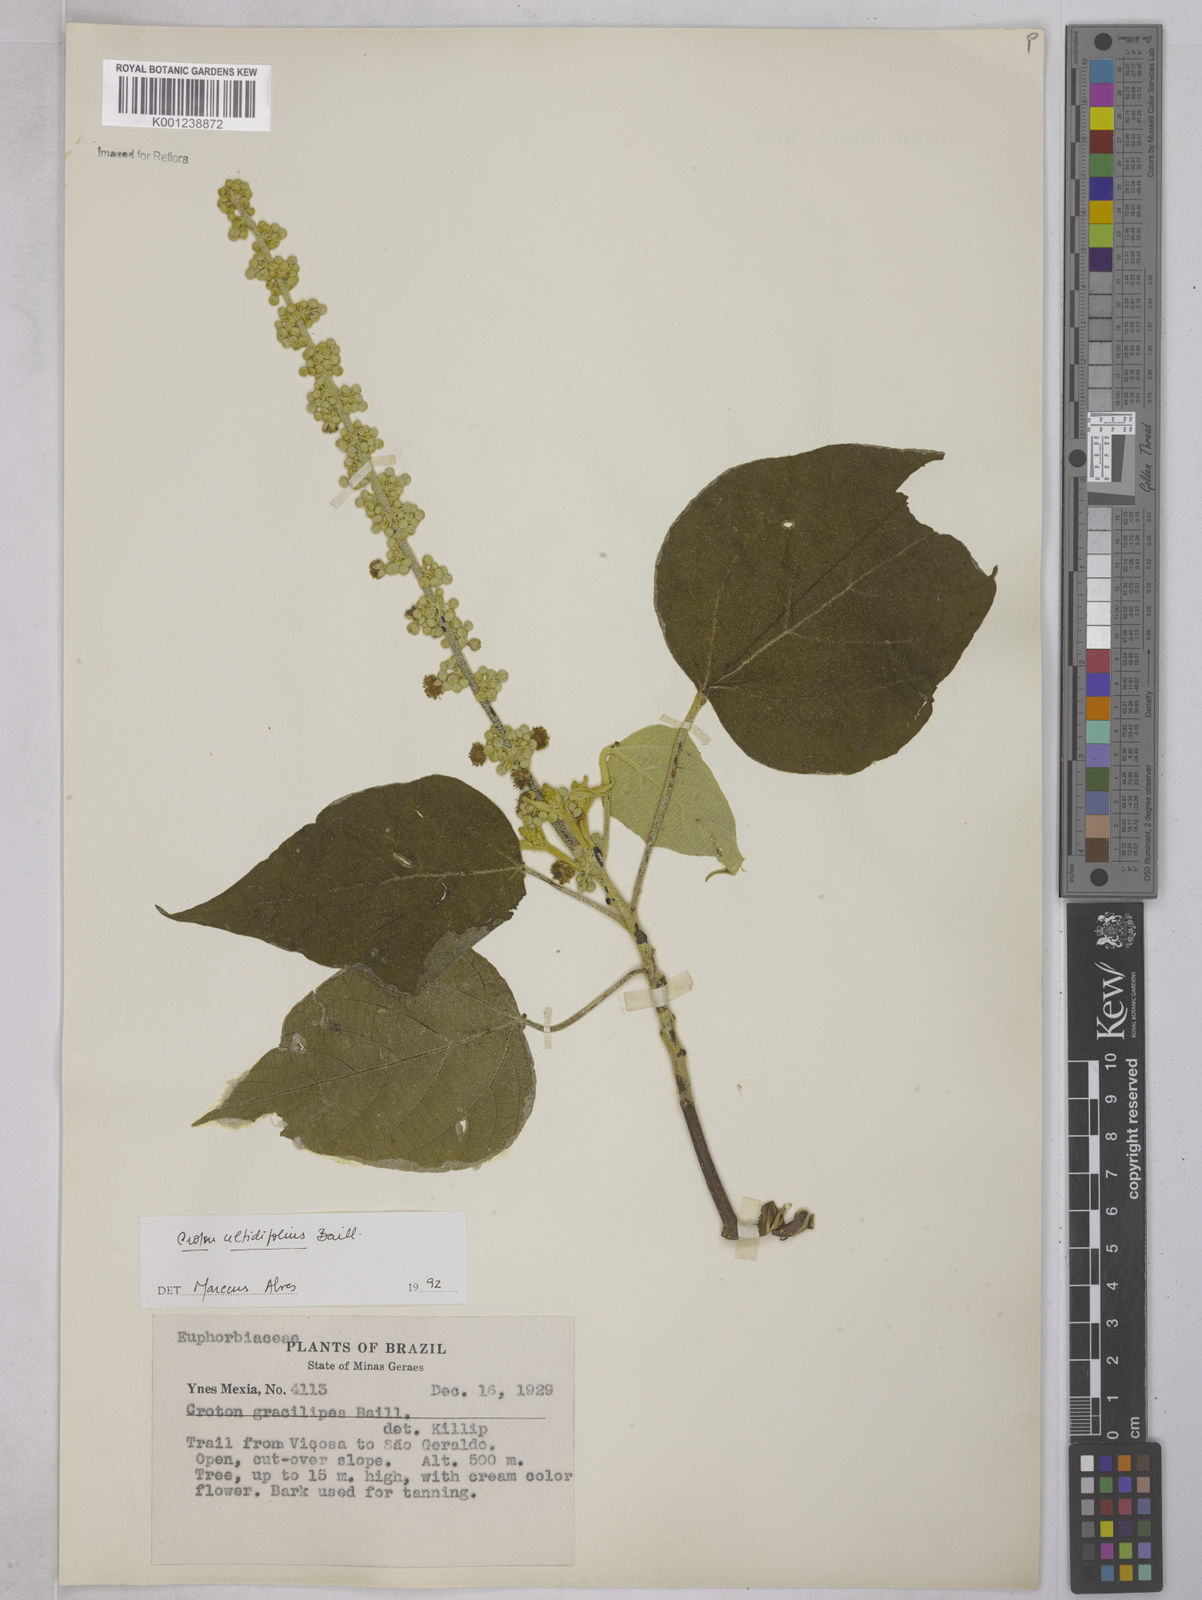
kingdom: Plantae
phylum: Tracheophyta
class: Magnoliopsida
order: Malpighiales
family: Euphorbiaceae
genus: Croton
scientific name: Croton celtidifolius
